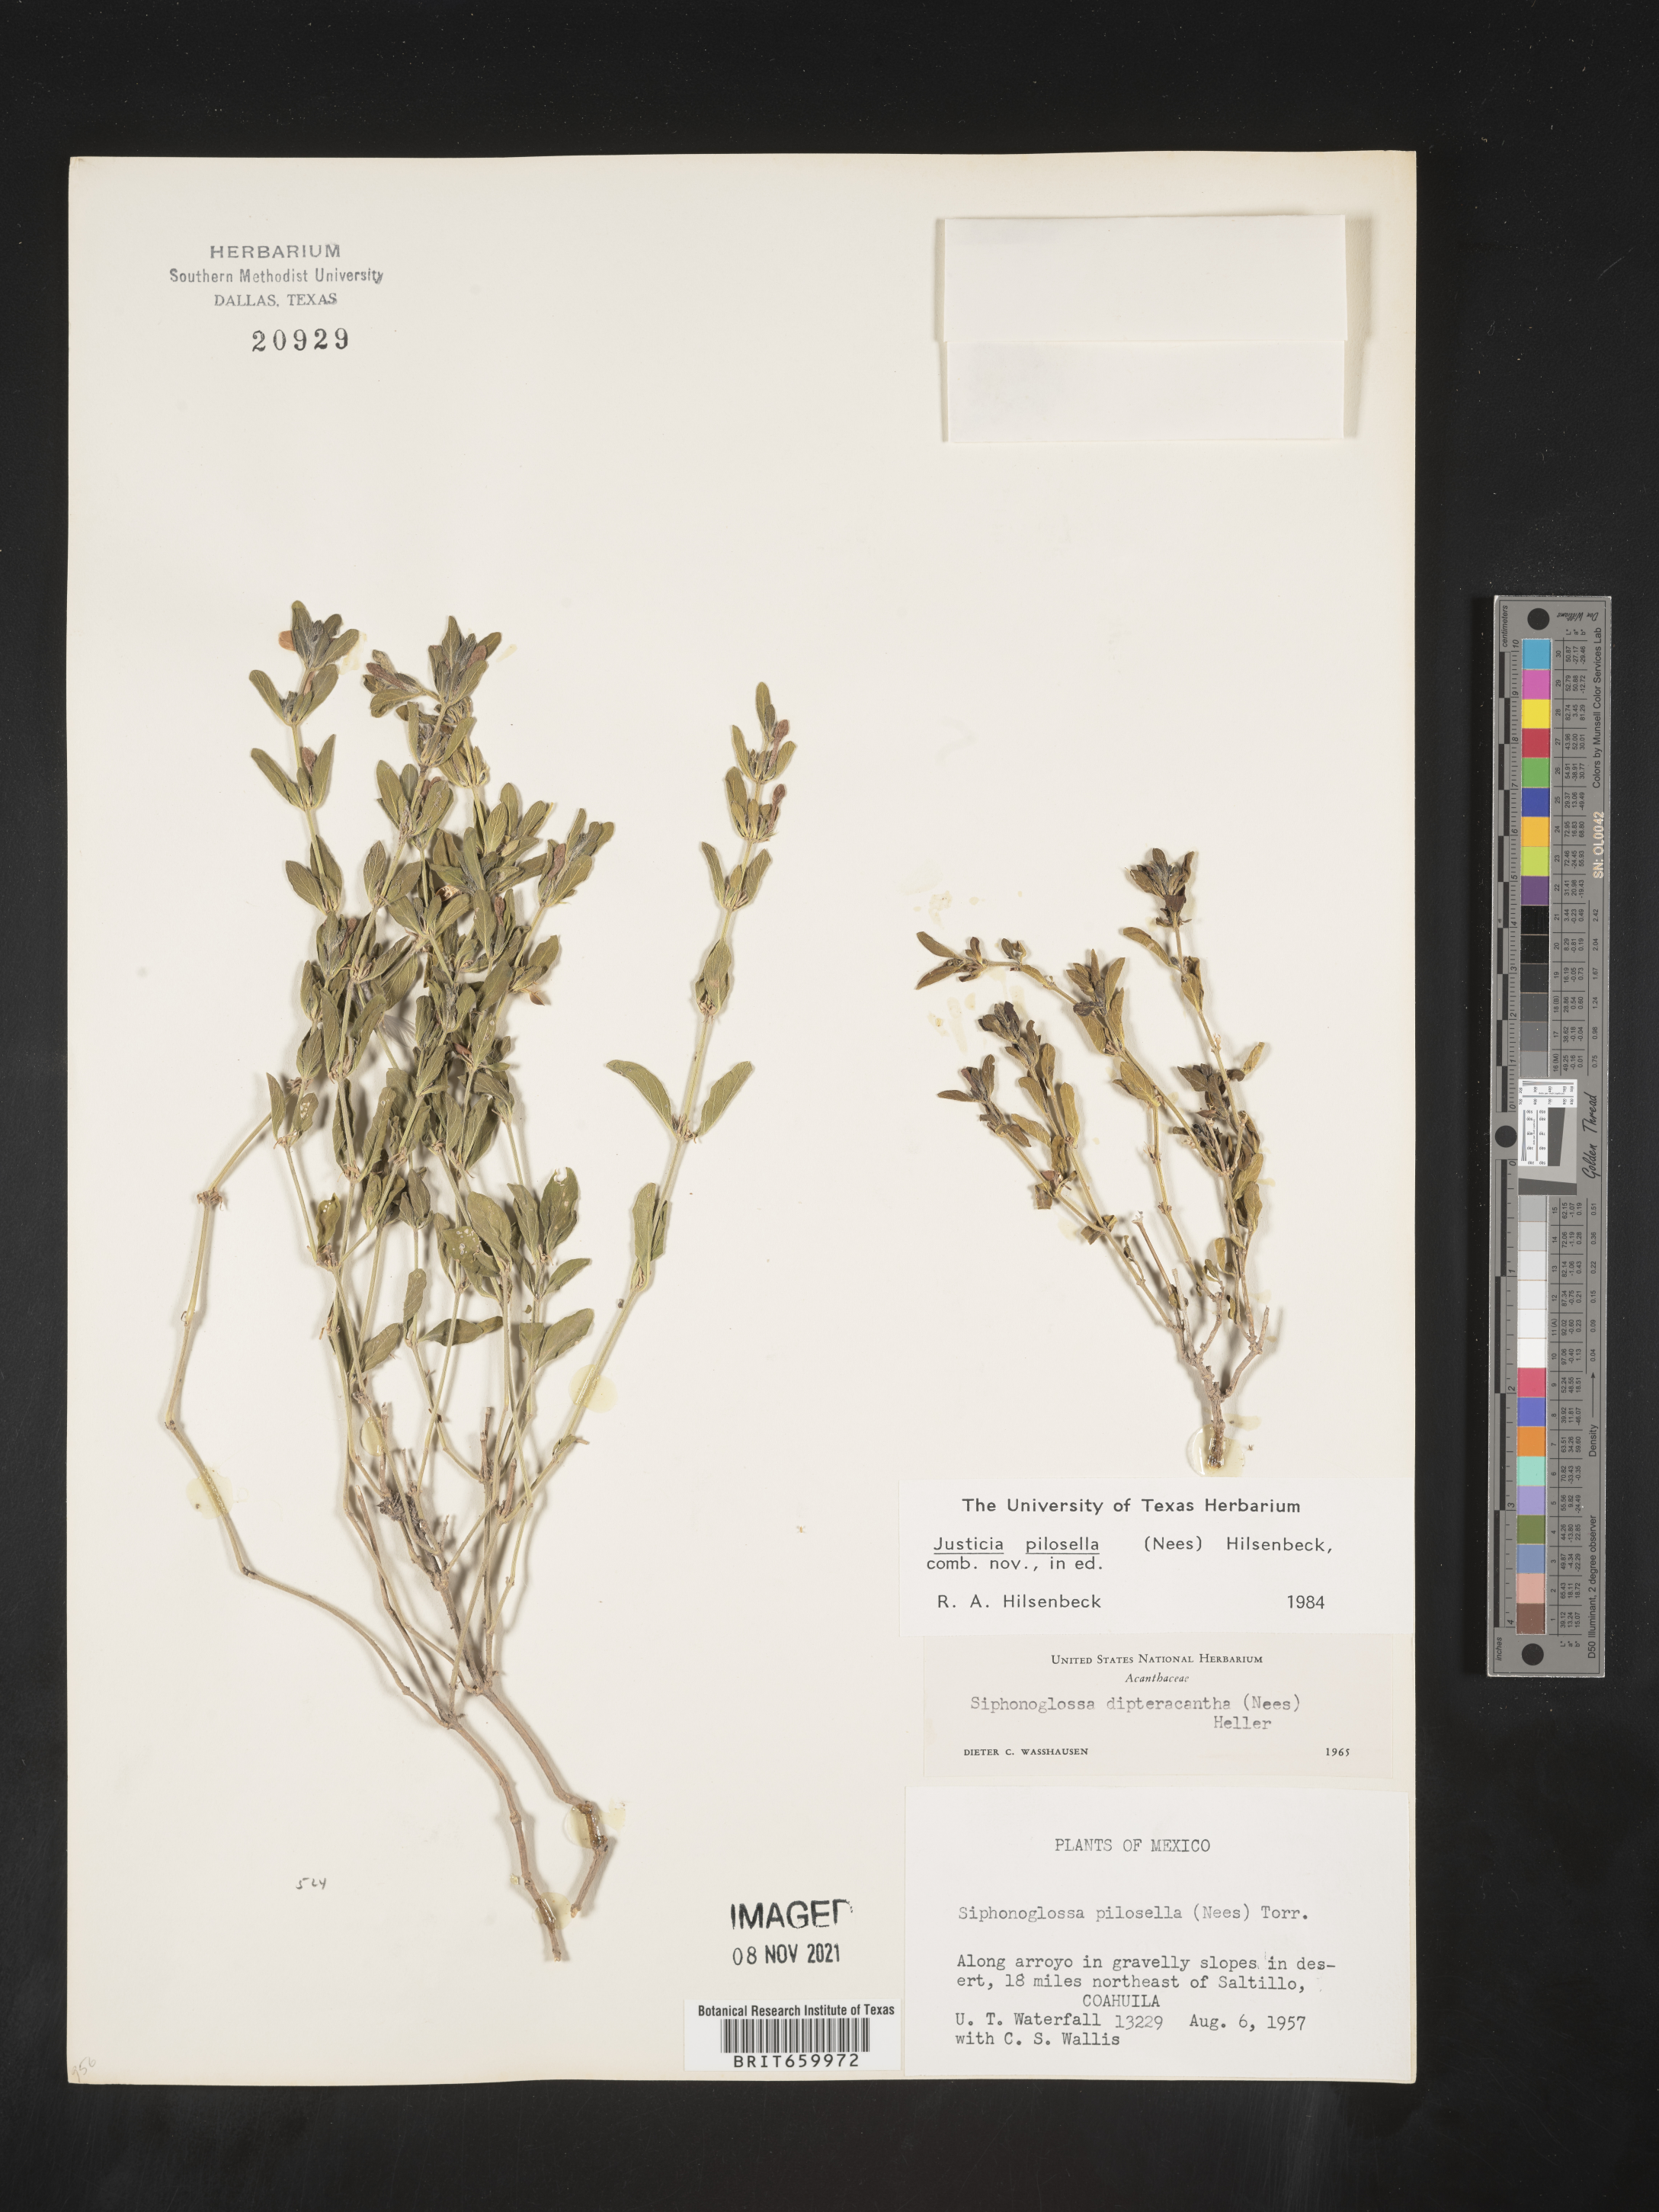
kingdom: Plantae
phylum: Tracheophyta
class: Magnoliopsida
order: Lamiales
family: Acanthaceae
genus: Justicia
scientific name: Justicia
